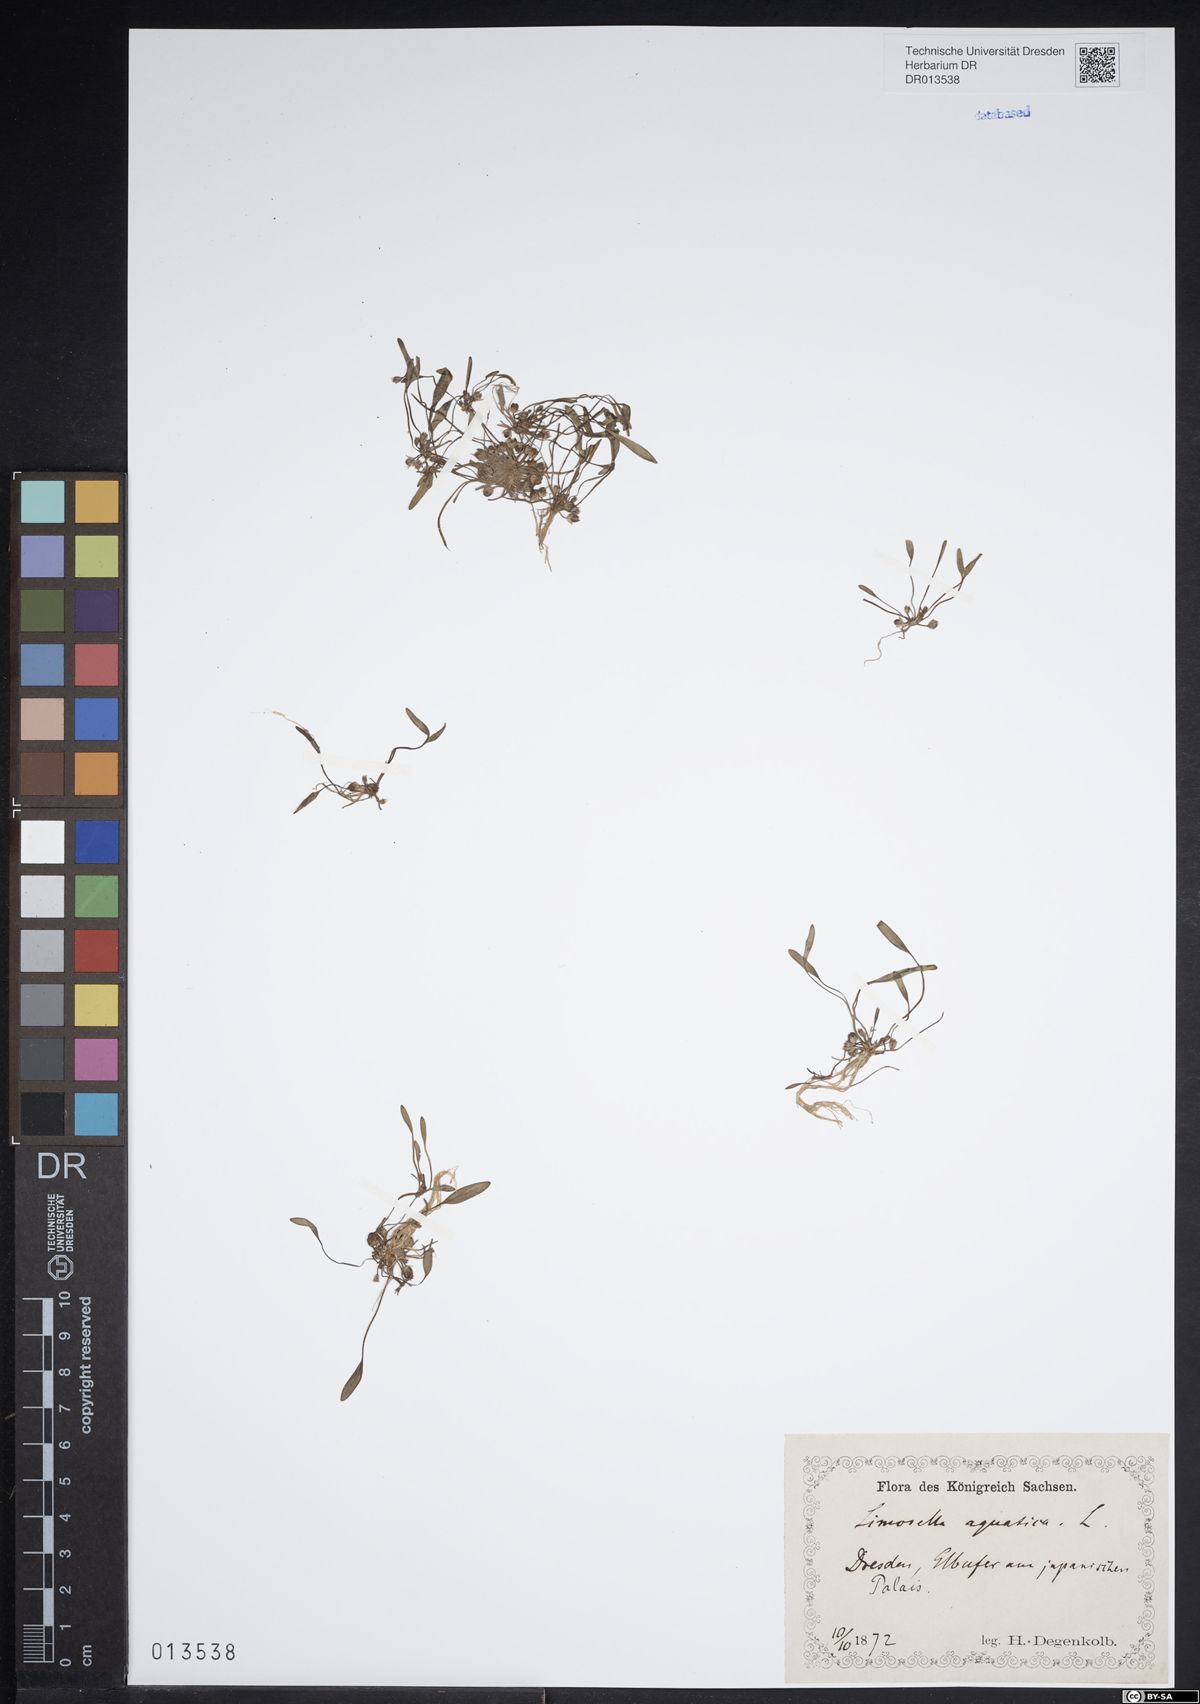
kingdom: Plantae
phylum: Tracheophyta
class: Magnoliopsida
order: Lamiales
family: Scrophulariaceae
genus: Limosella
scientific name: Limosella aquatica
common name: Mudwort
